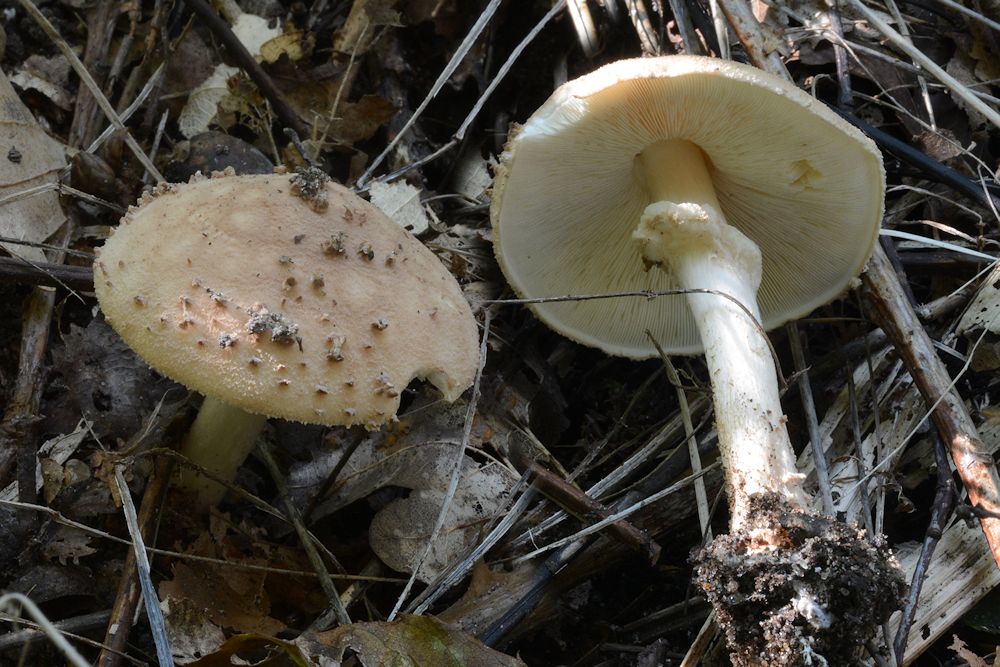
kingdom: Fungi
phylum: Basidiomycota
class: Agaricomycetes
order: Agaricales
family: Agaricaceae
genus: Echinoderma
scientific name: Echinoderma asperum
